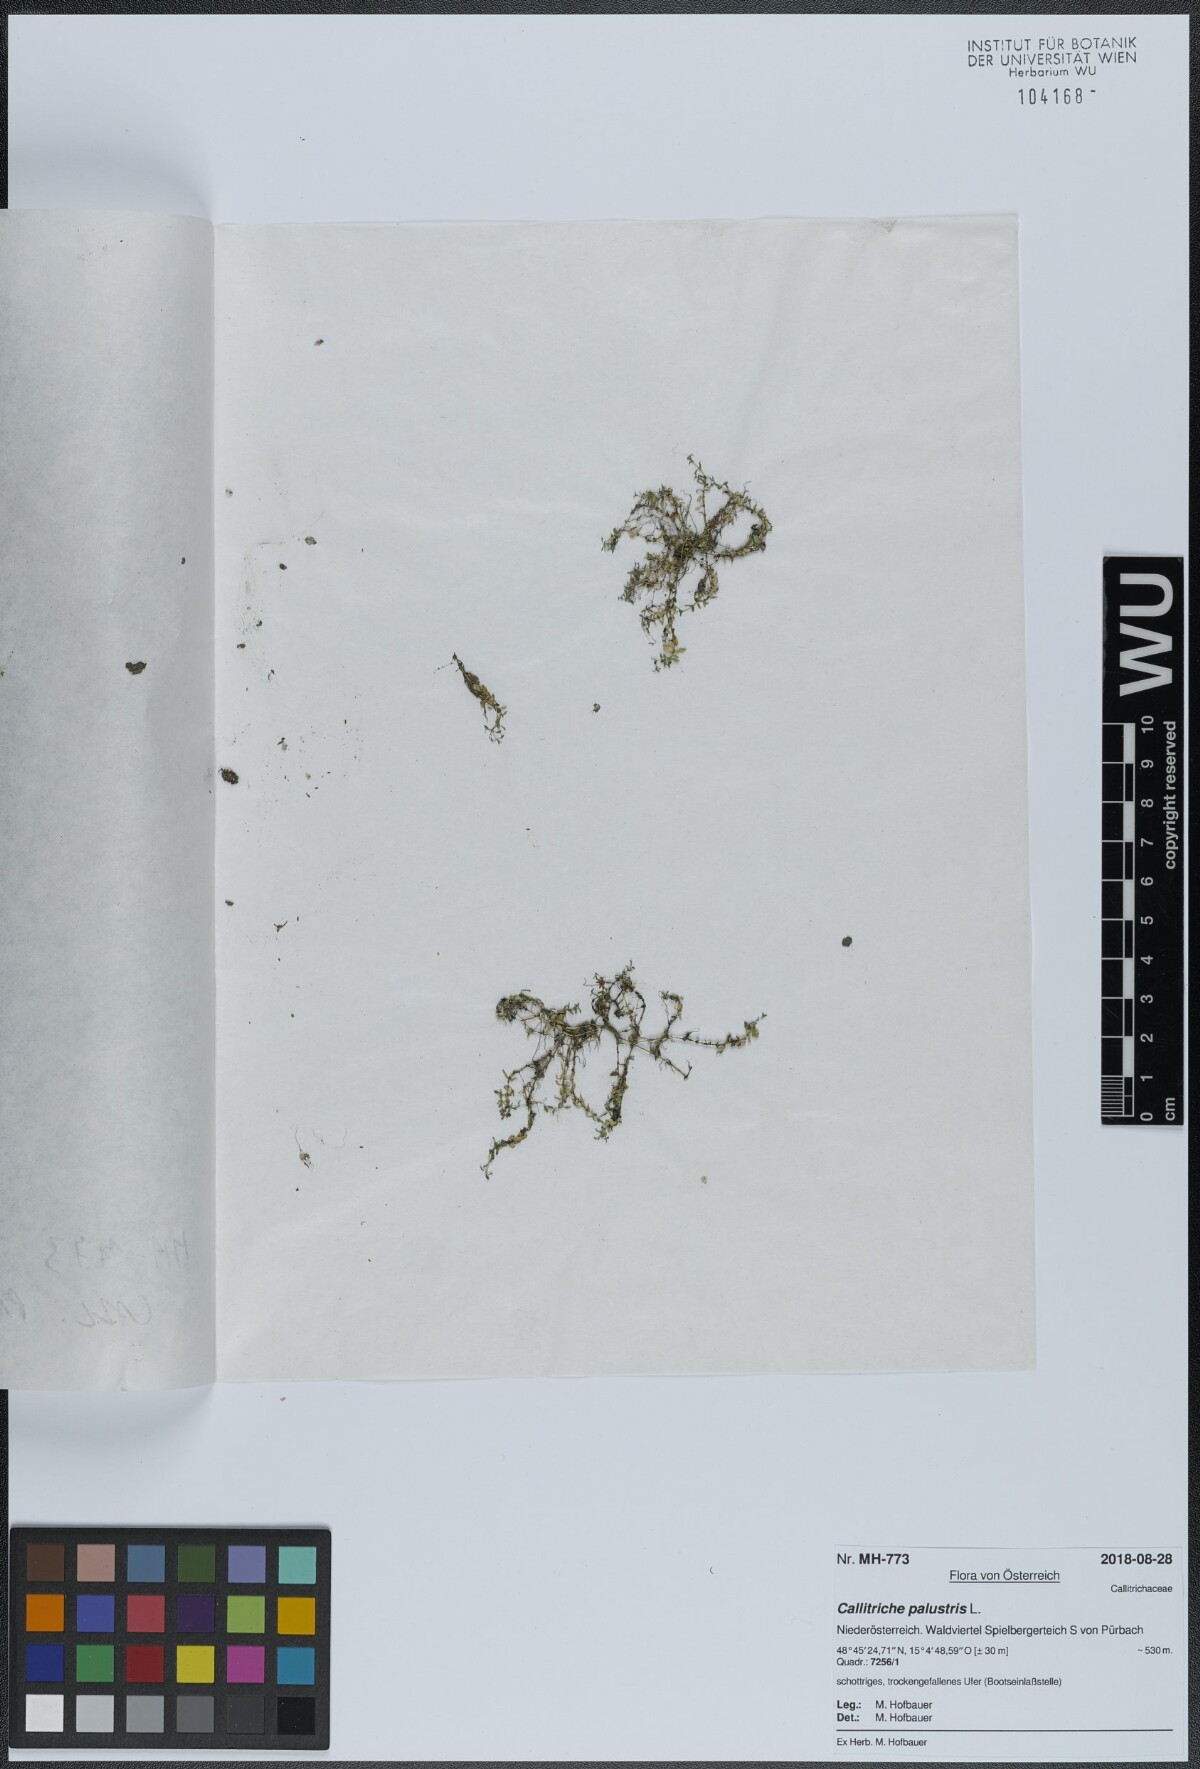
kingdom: Plantae
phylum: Tracheophyta
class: Magnoliopsida
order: Lamiales
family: Plantaginaceae
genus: Callitriche
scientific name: Callitriche palustris
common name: Spring water-starwort
